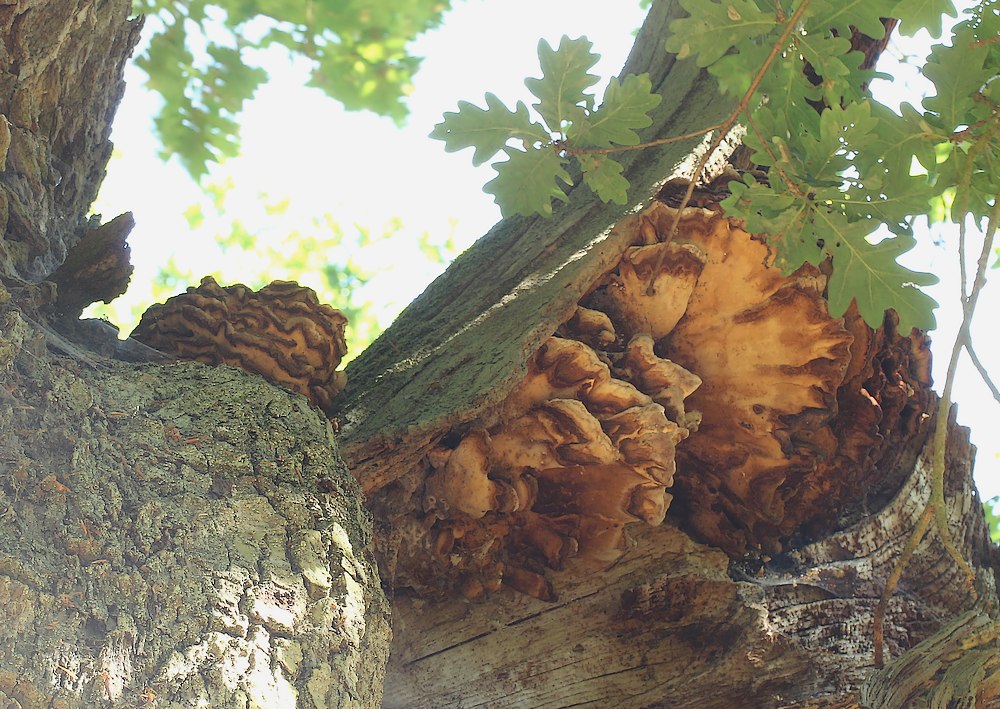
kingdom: Fungi
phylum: Basidiomycota
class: Agaricomycetes
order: Polyporales
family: Laetiporaceae
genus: Laetiporus
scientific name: Laetiporus sulphureus
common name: svovlporesvamp
